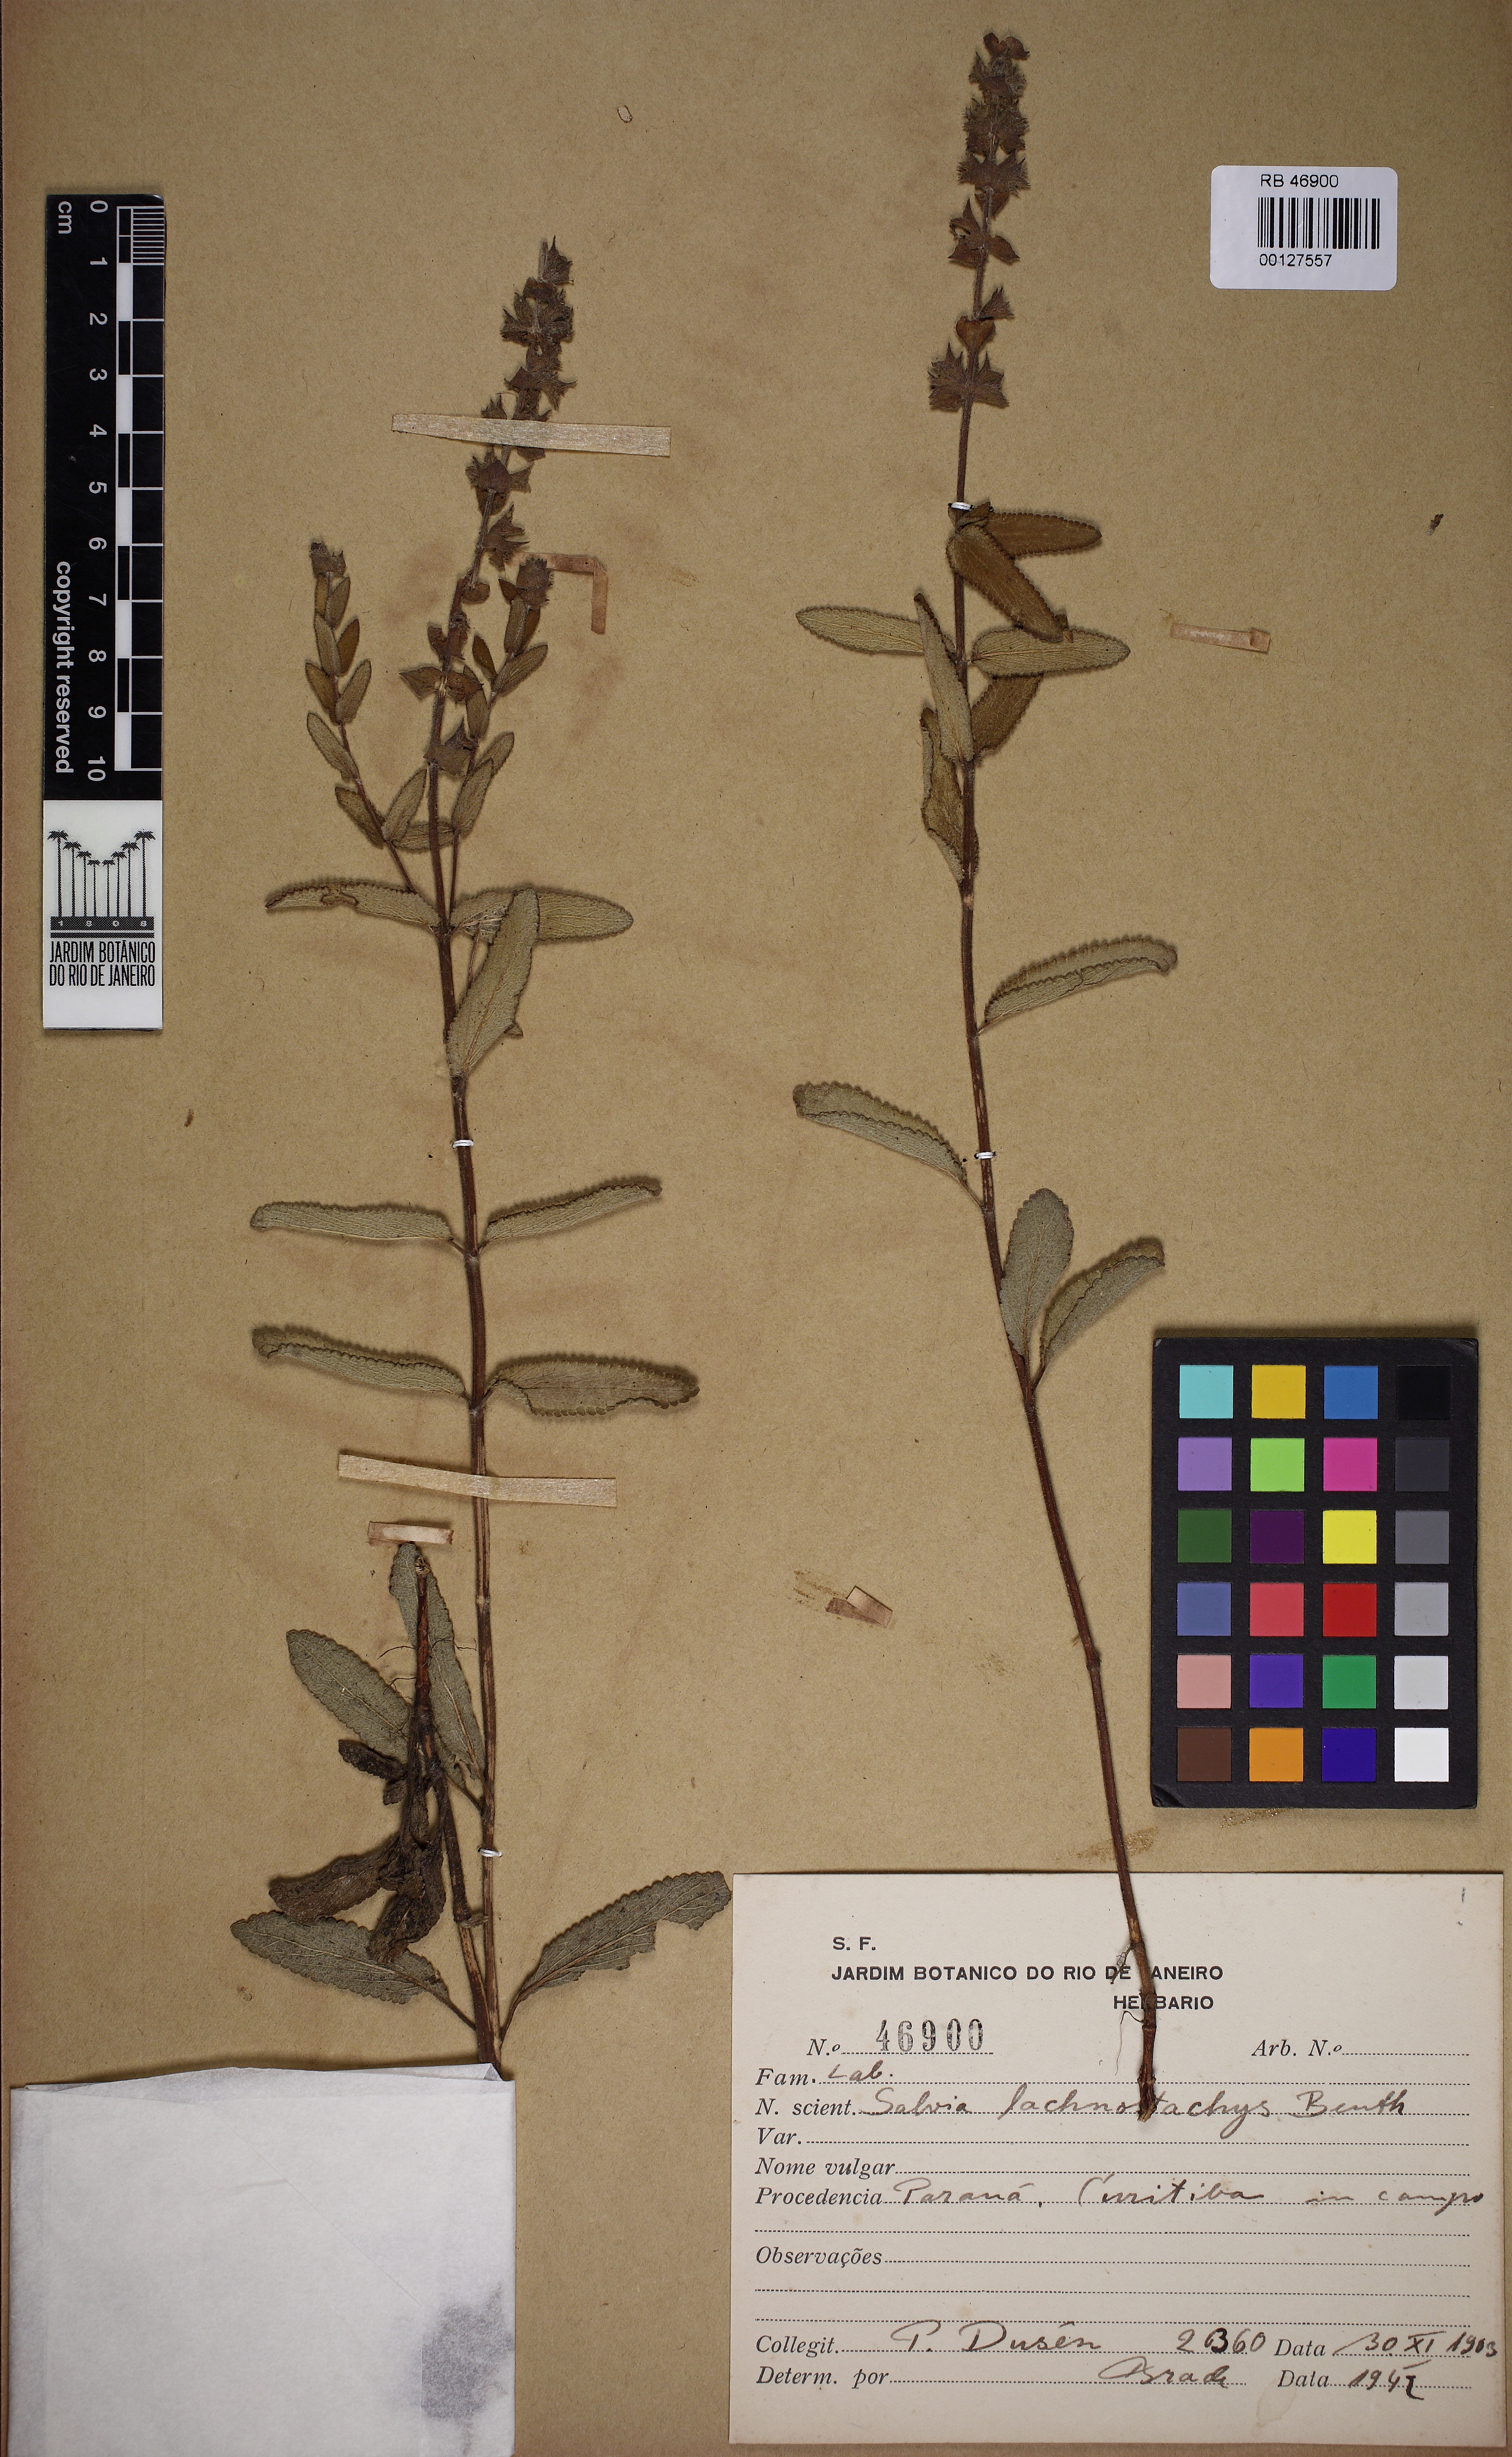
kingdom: Plantae
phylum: Tracheophyta
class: Magnoliopsida
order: Lamiales
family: Lamiaceae
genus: Salvia
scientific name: Salvia lachnostachys
